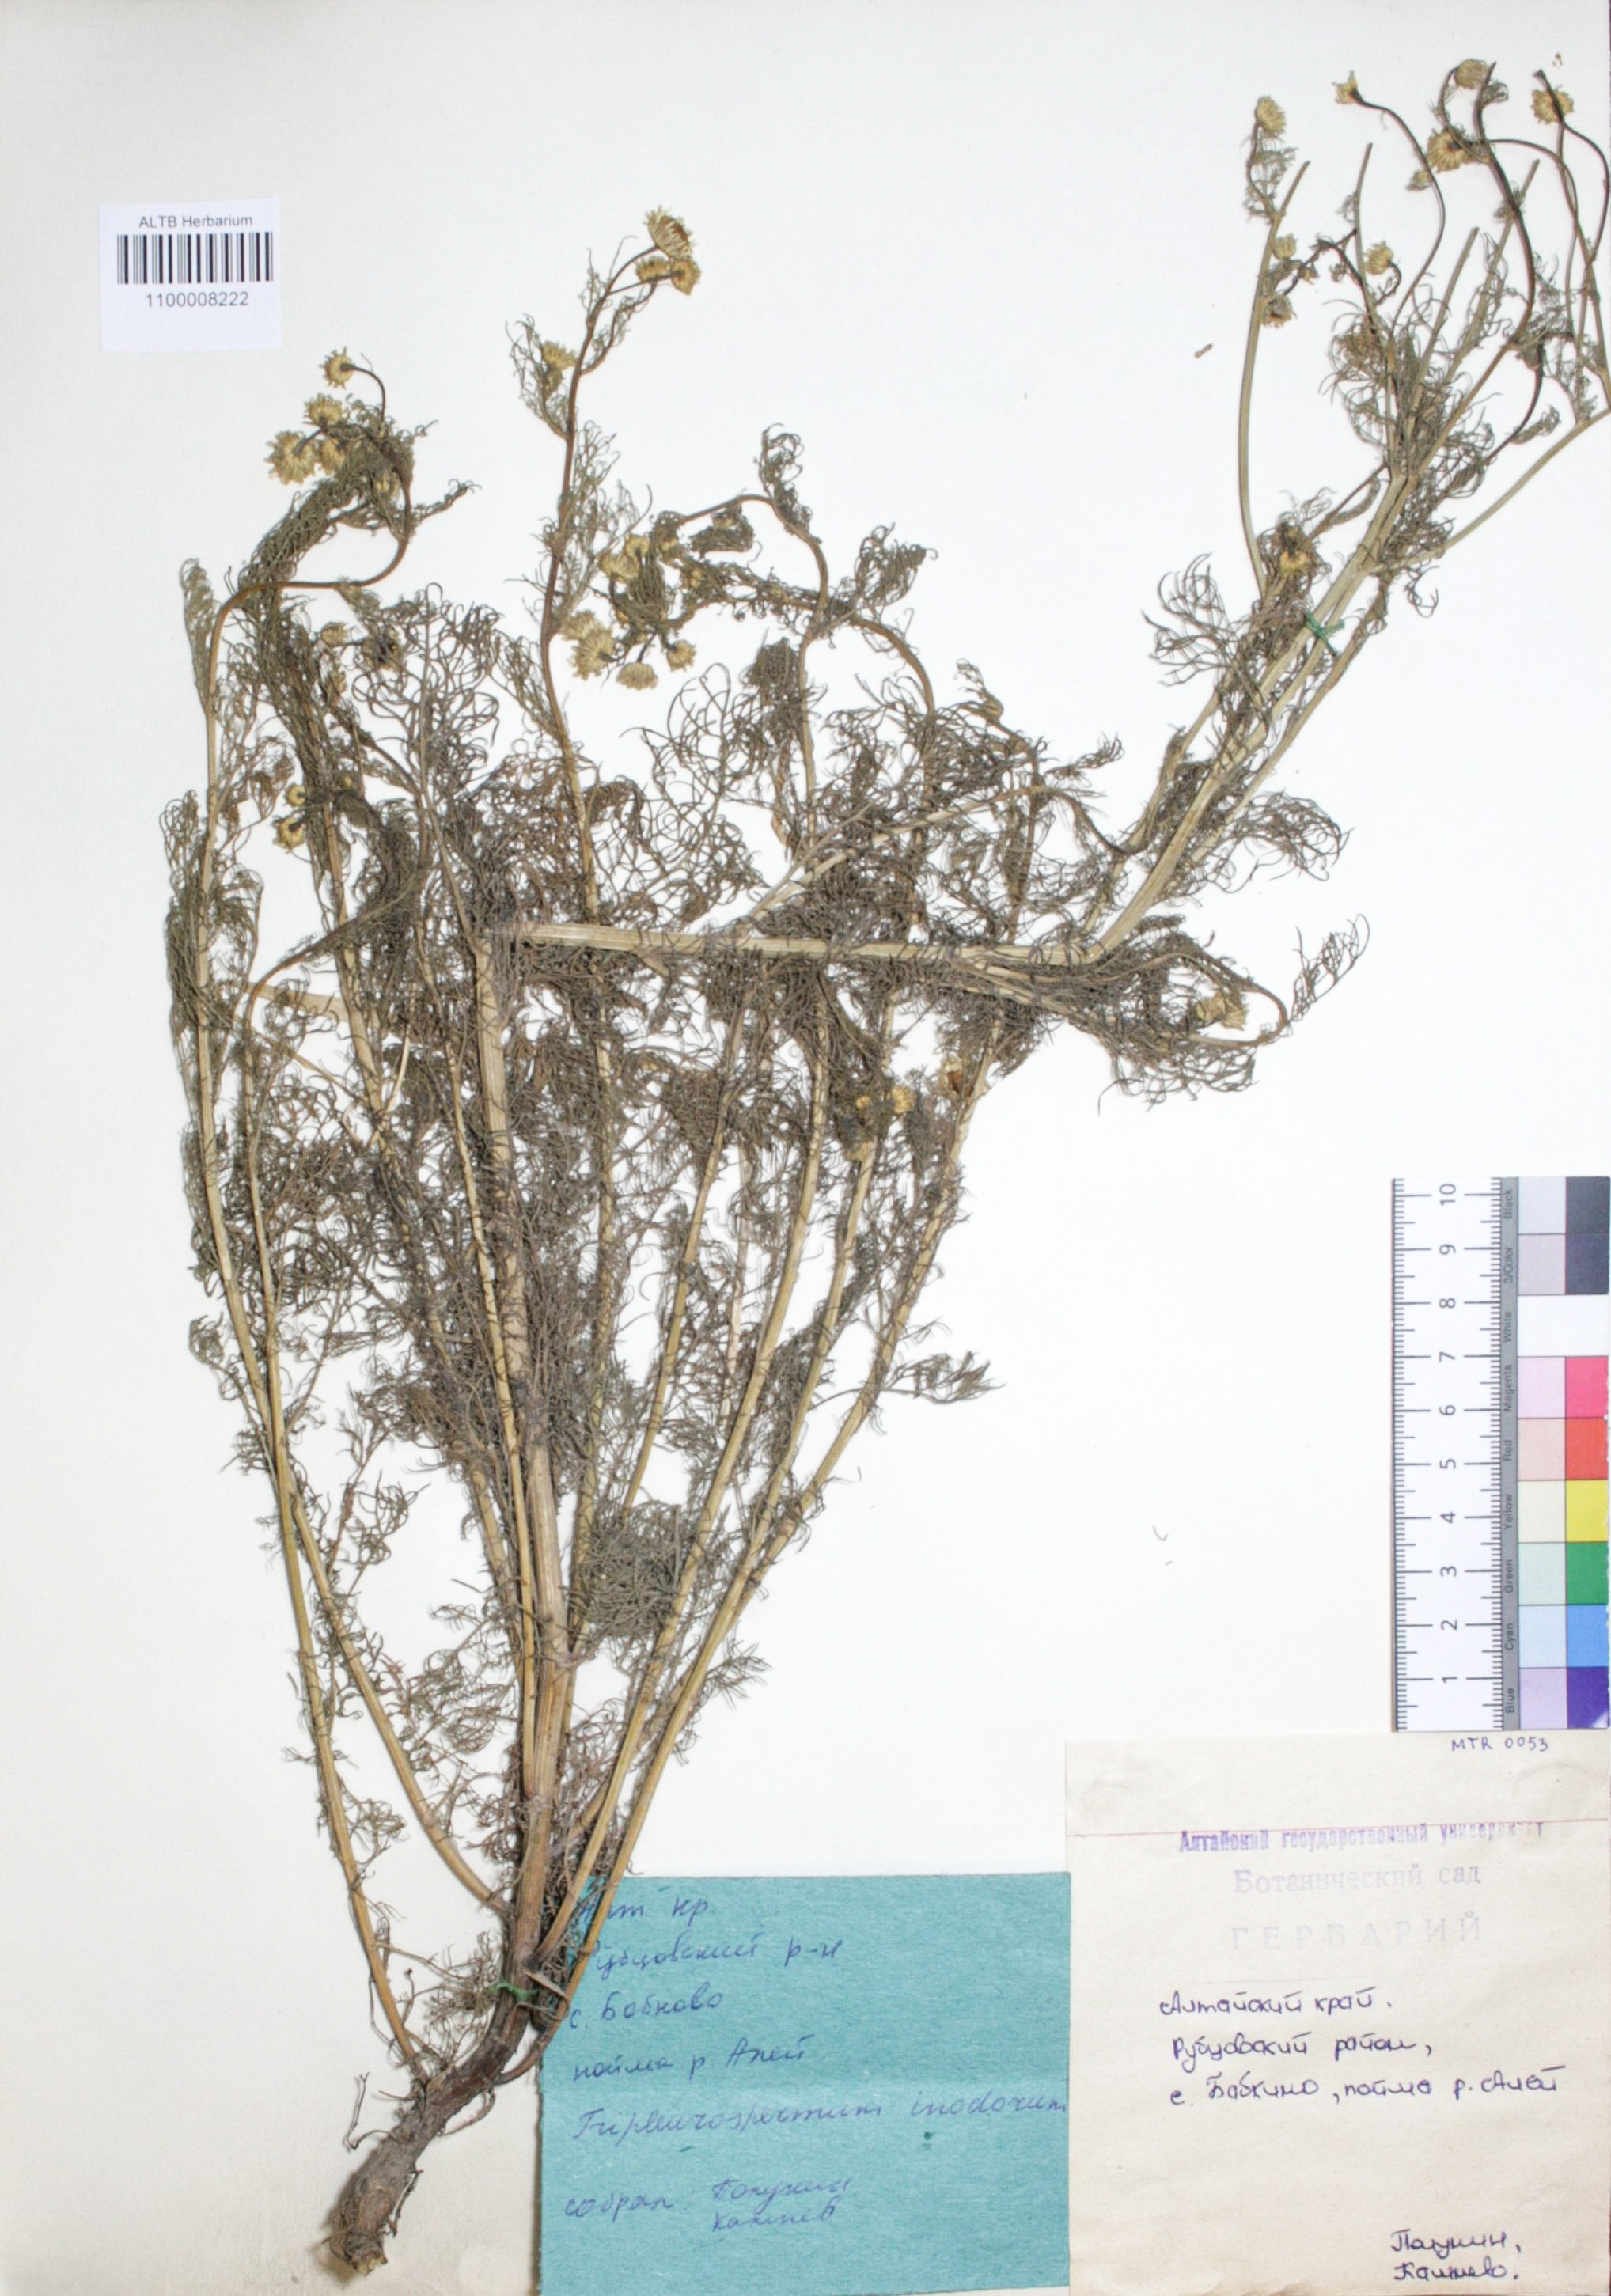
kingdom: Plantae
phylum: Tracheophyta
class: Magnoliopsida
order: Asterales
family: Asteraceae
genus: Tripleurospermum
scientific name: Tripleurospermum inodorum
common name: Scentless mayweed
